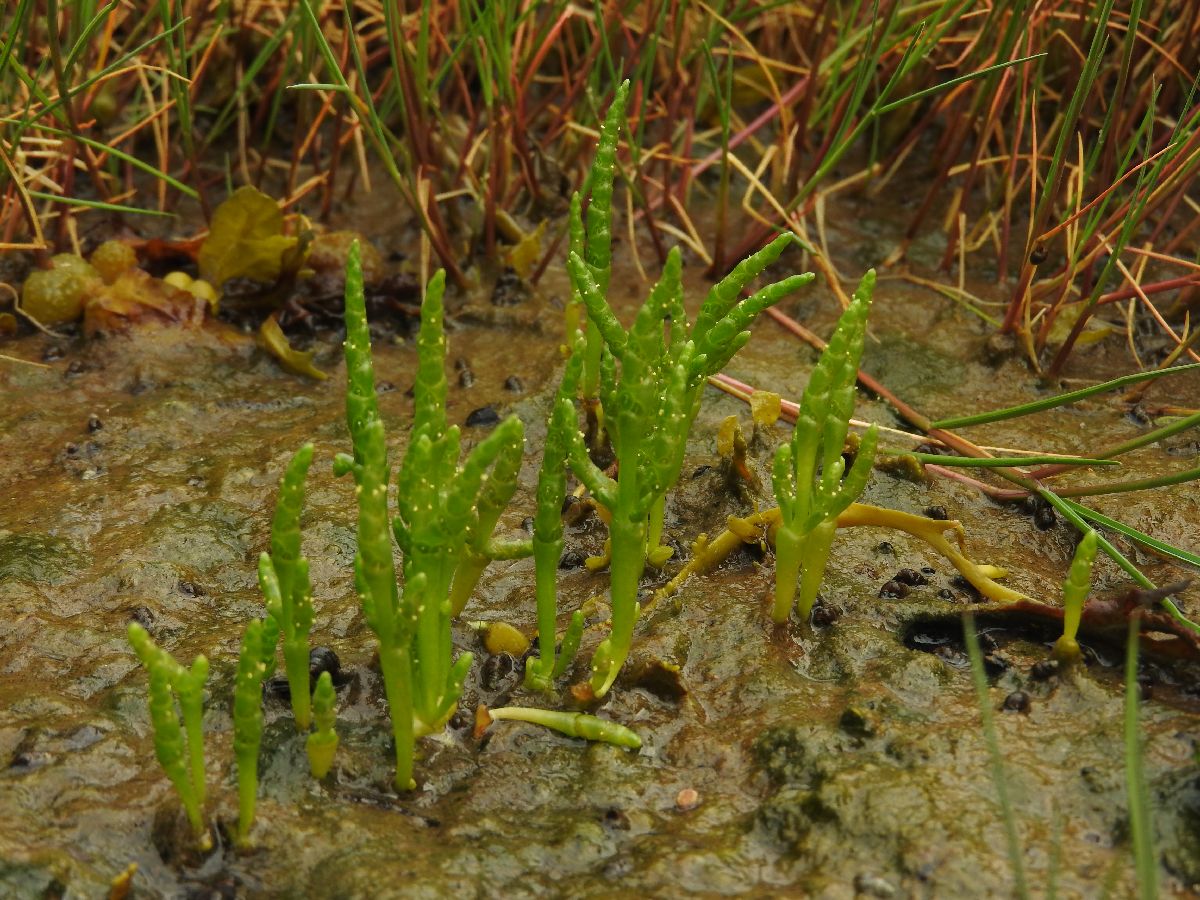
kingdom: Plantae
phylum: Tracheophyta
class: Magnoliopsida
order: Caryophyllales
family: Amaranthaceae
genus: Salicornia
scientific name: Salicornia procumbens
